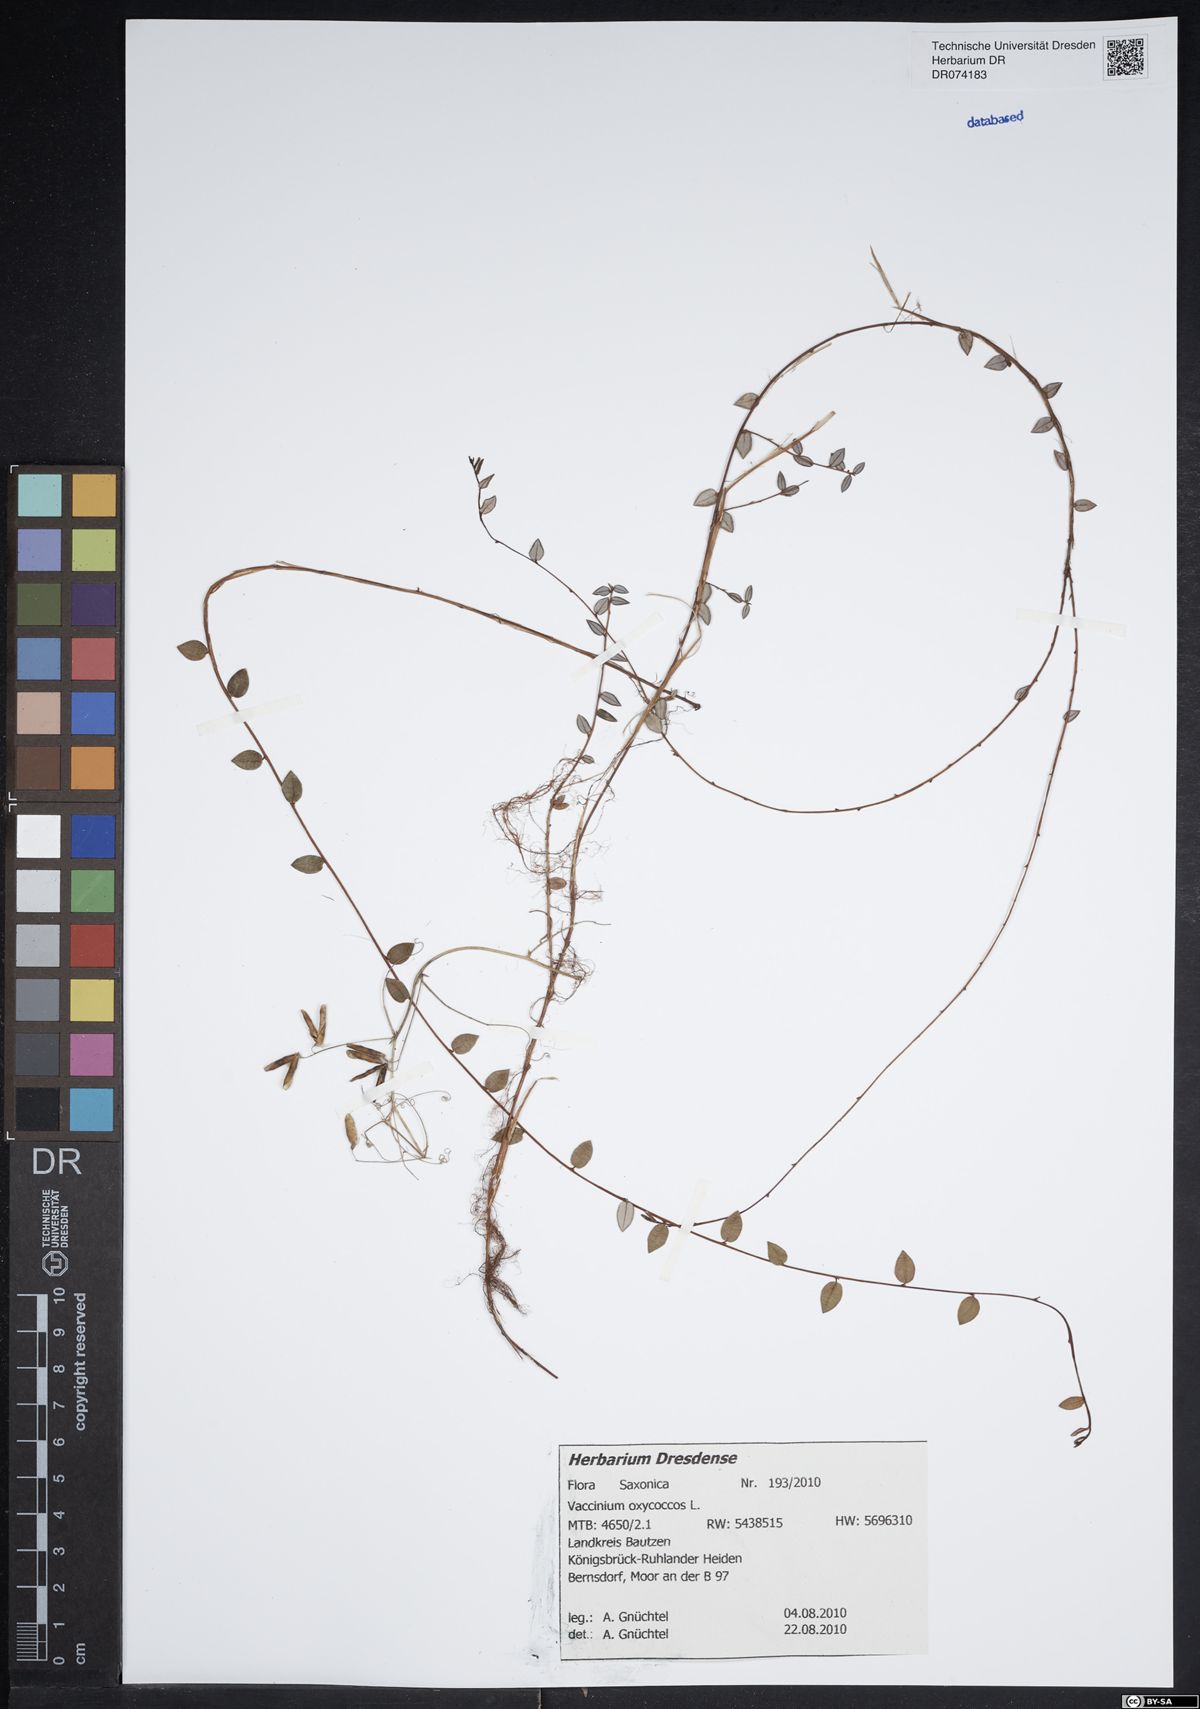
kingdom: Plantae
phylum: Tracheophyta
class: Magnoliopsida
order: Ericales
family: Ericaceae
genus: Vaccinium
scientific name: Vaccinium oxycoccos
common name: Cranberry
